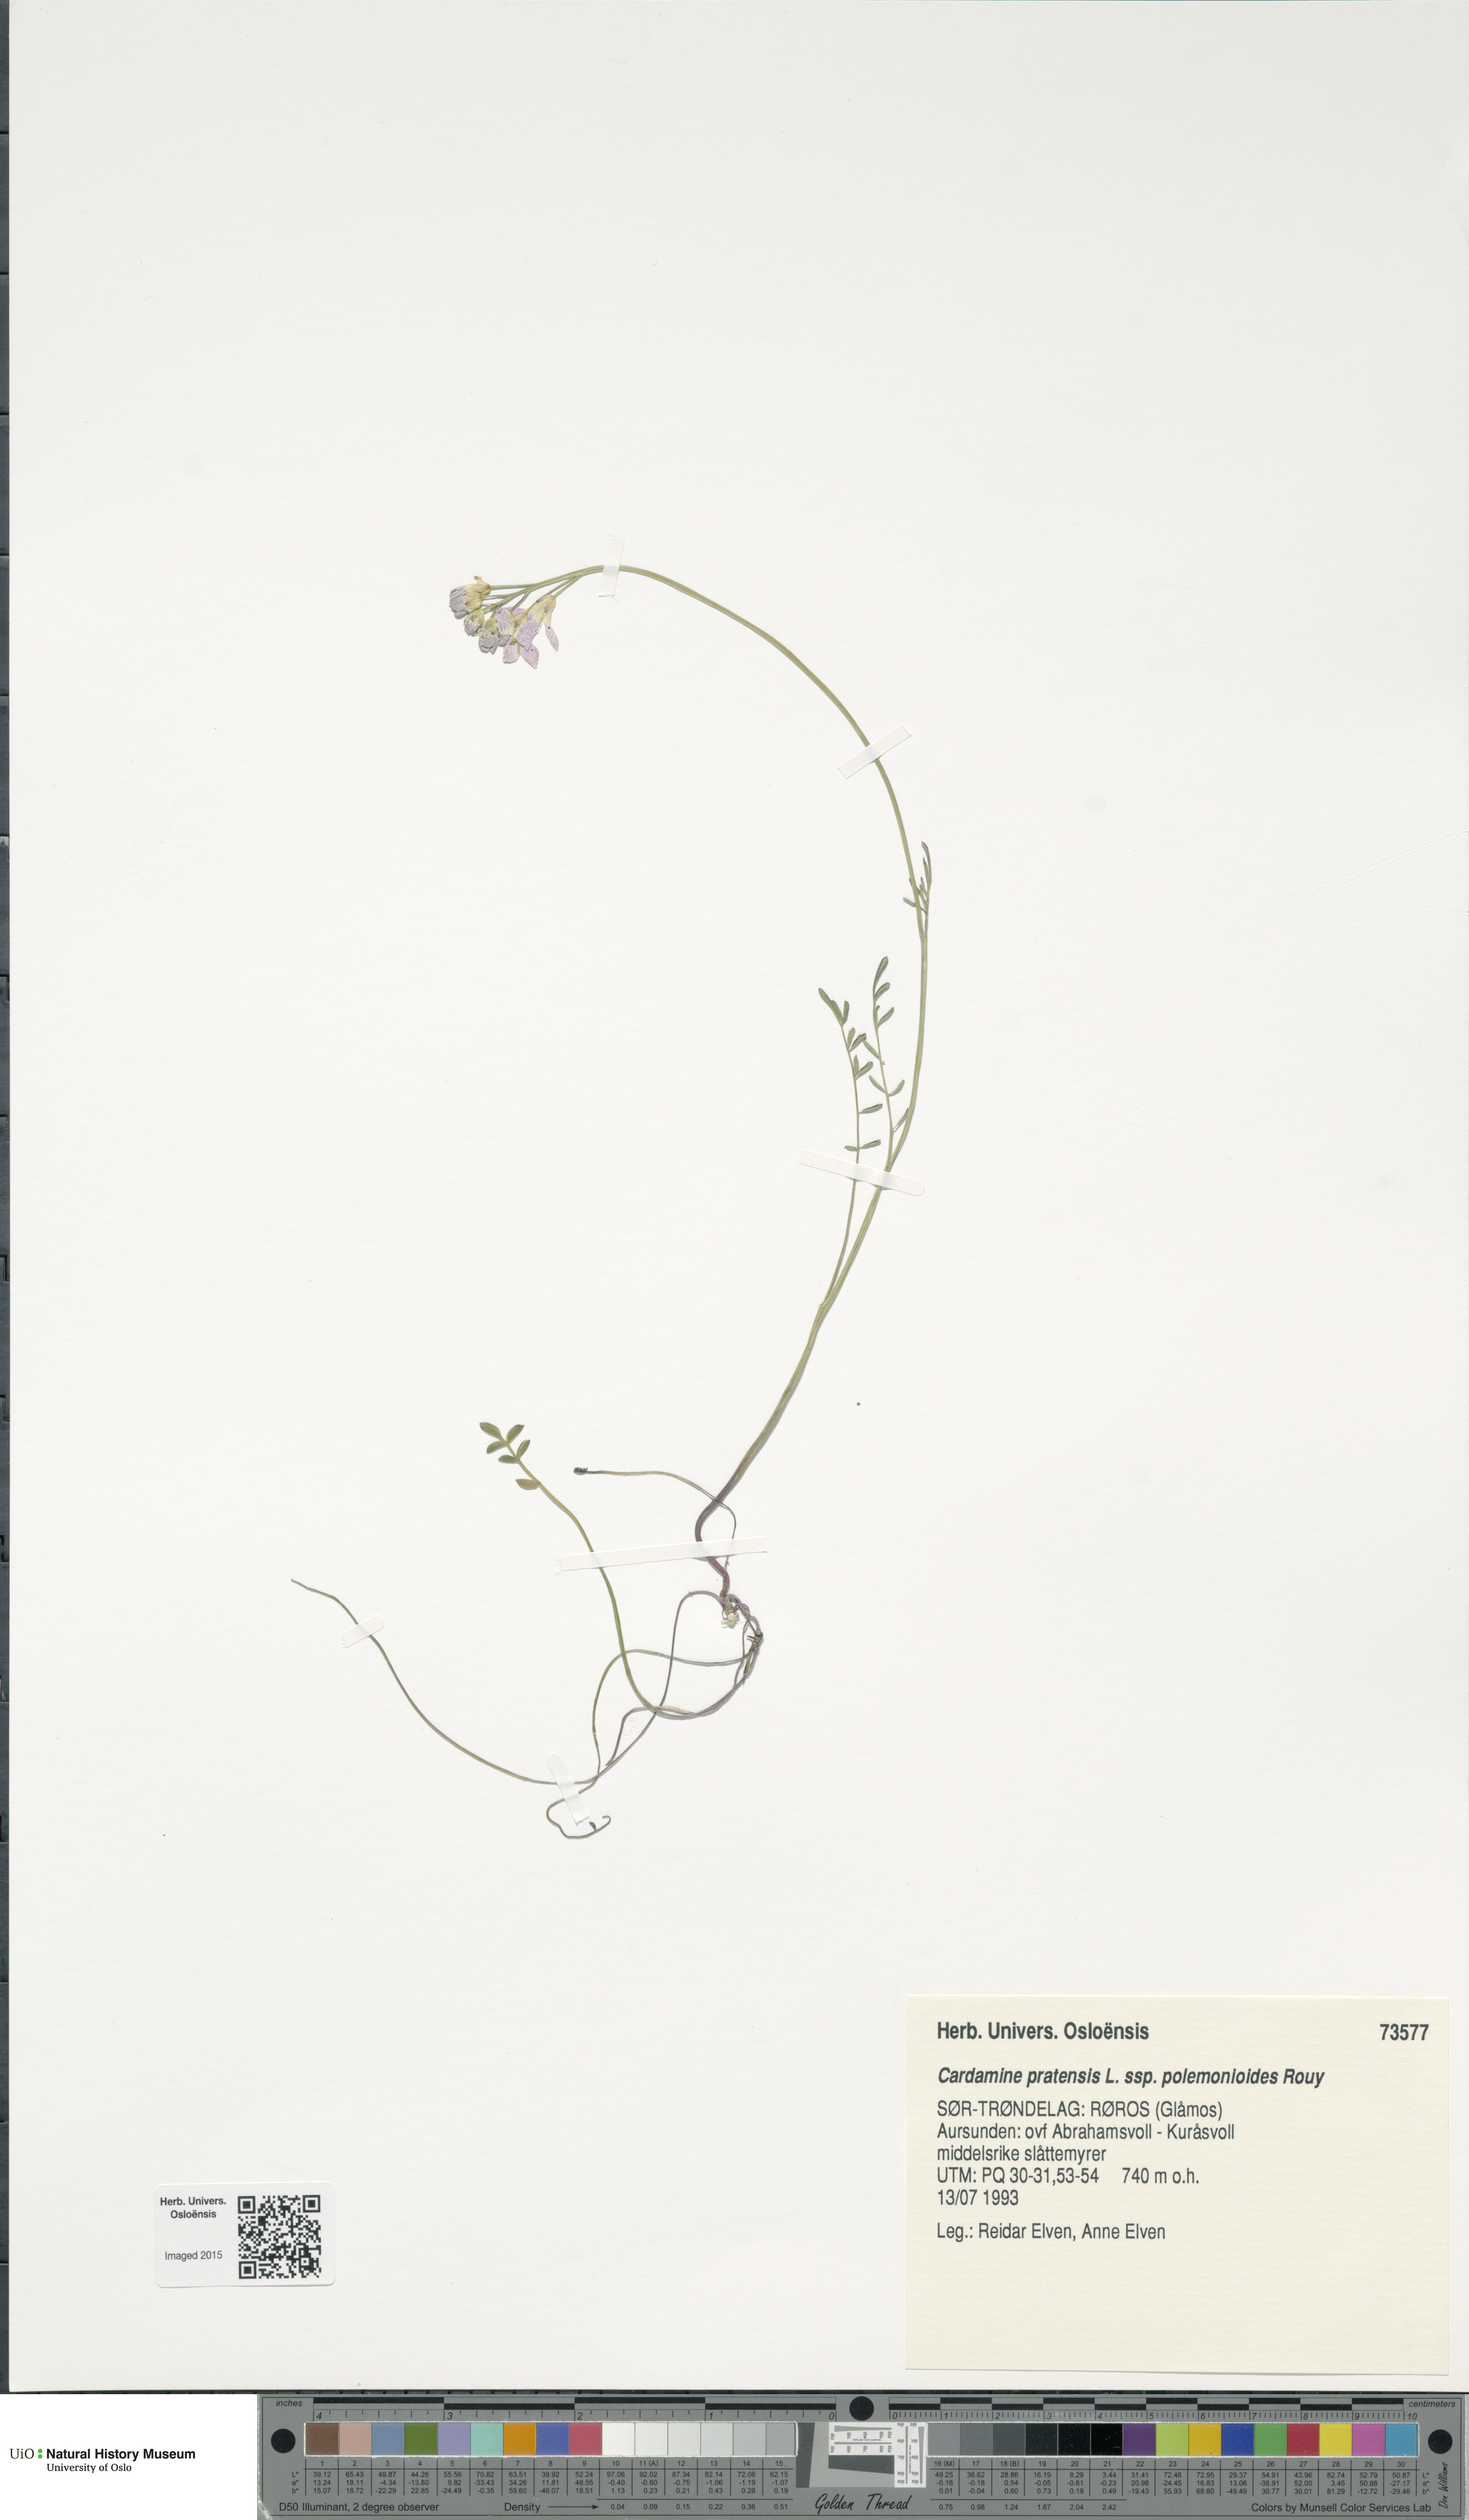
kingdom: Plantae
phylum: Tracheophyta
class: Magnoliopsida
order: Brassicales
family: Brassicaceae
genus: Cardamine
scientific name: Cardamine nymanii
